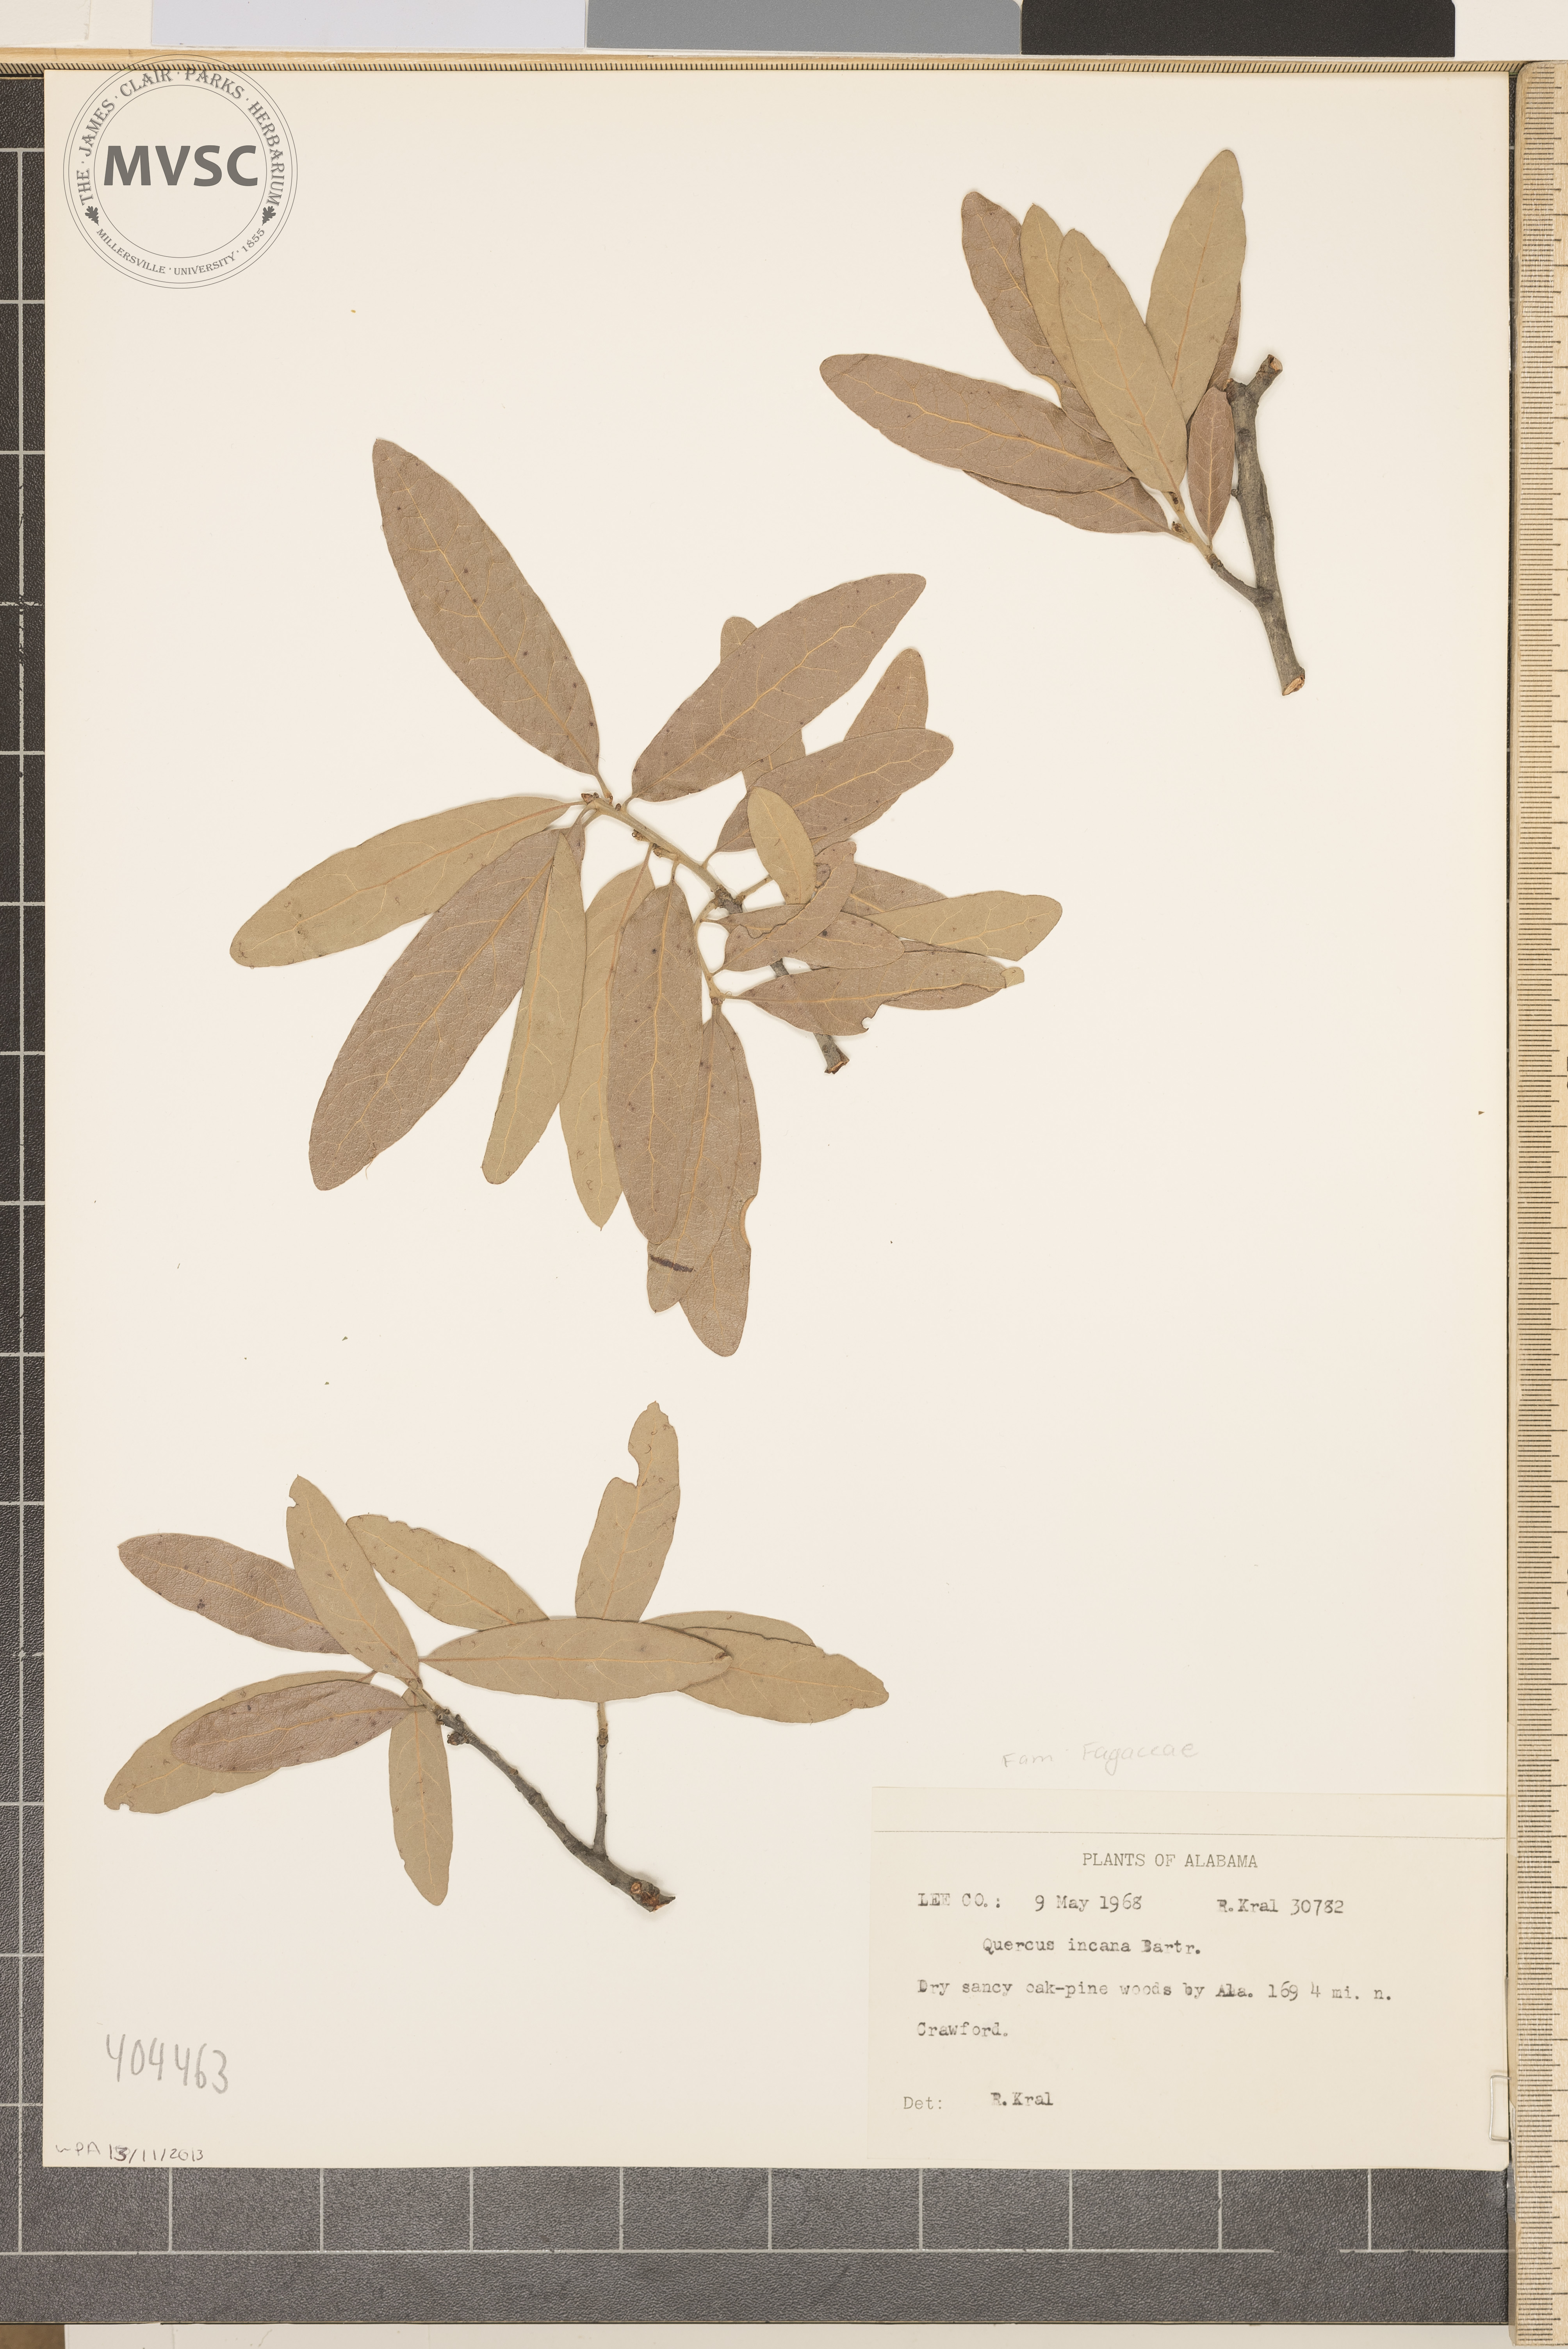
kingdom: Plantae
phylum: Tracheophyta
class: Magnoliopsida
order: Fagales
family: Fagaceae
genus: Quercus
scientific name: Quercus incana
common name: Bluejack oak
